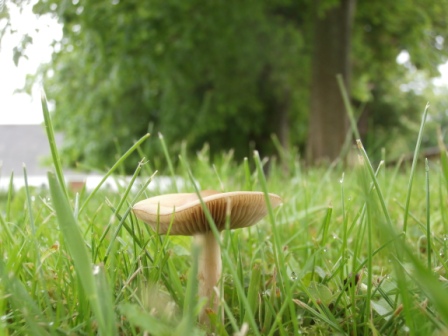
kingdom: Fungi
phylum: Basidiomycota
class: Agaricomycetes
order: Agaricales
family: Strophariaceae
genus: Agrocybe
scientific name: Agrocybe praecox
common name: tidlig agerhat
